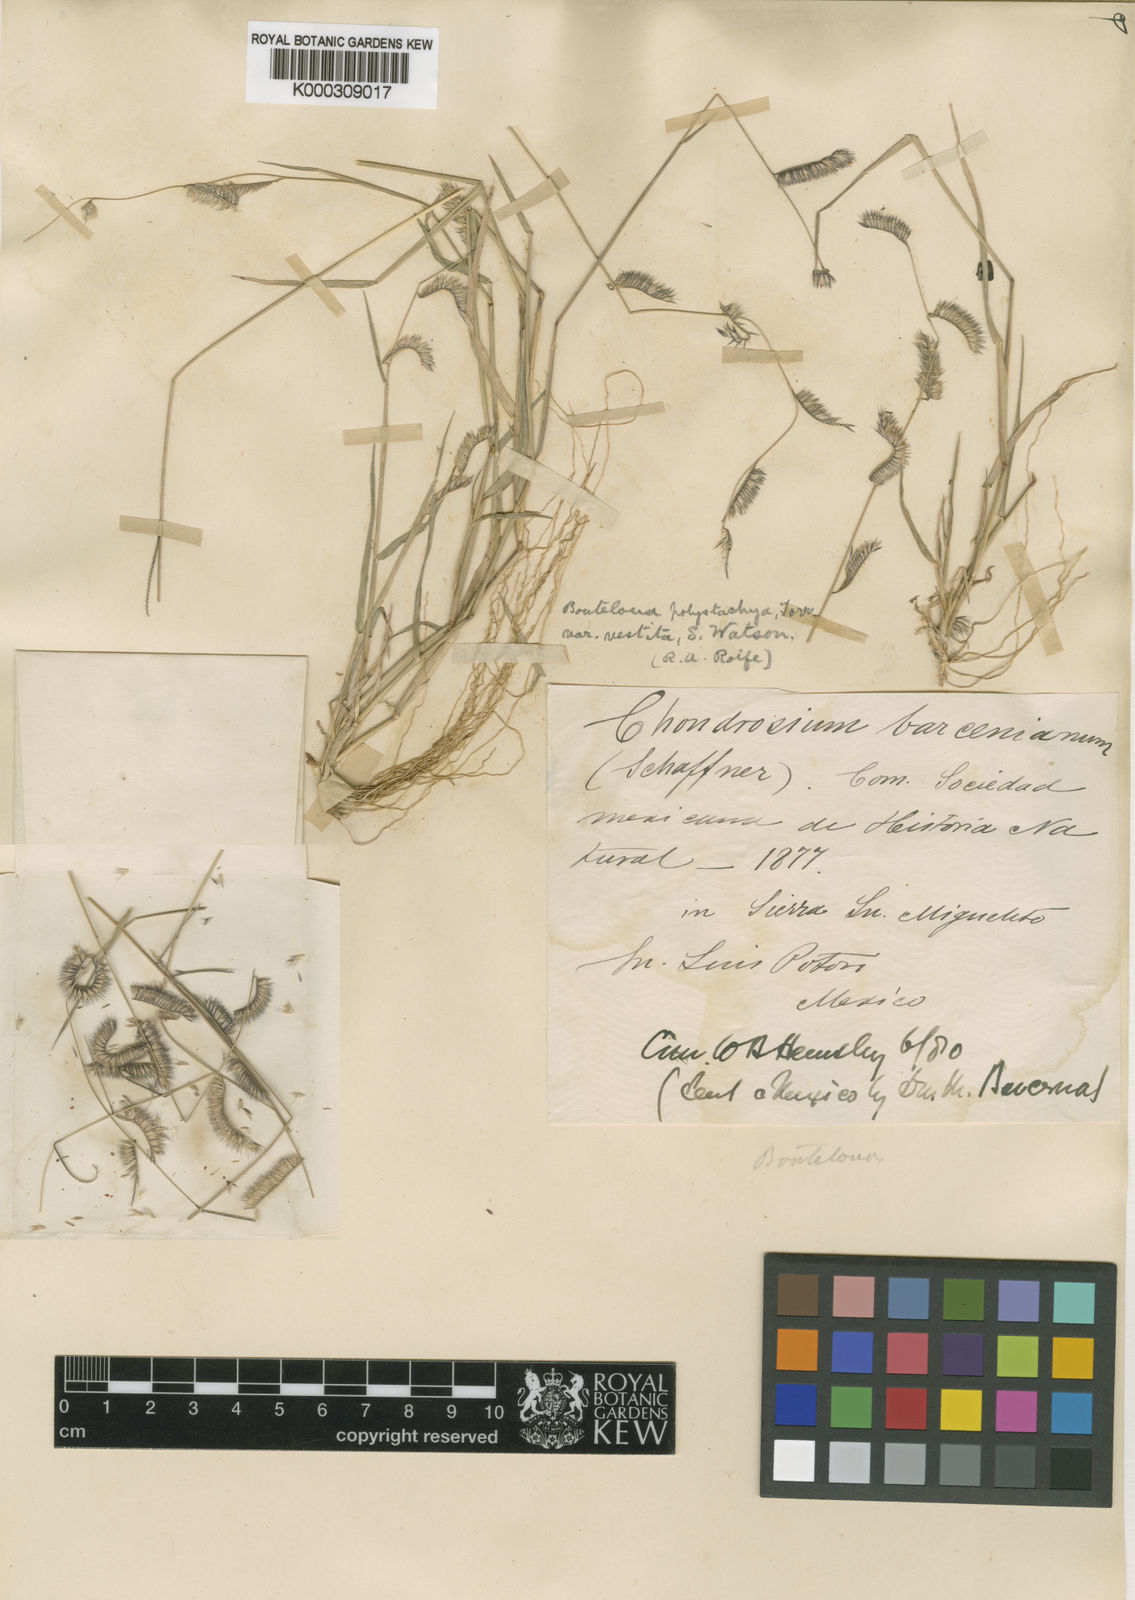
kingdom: Plantae
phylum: Tracheophyta
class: Liliopsida
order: Poales
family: Poaceae
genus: Bouteloua
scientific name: Bouteloua barbata
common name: Six-weeks grama
